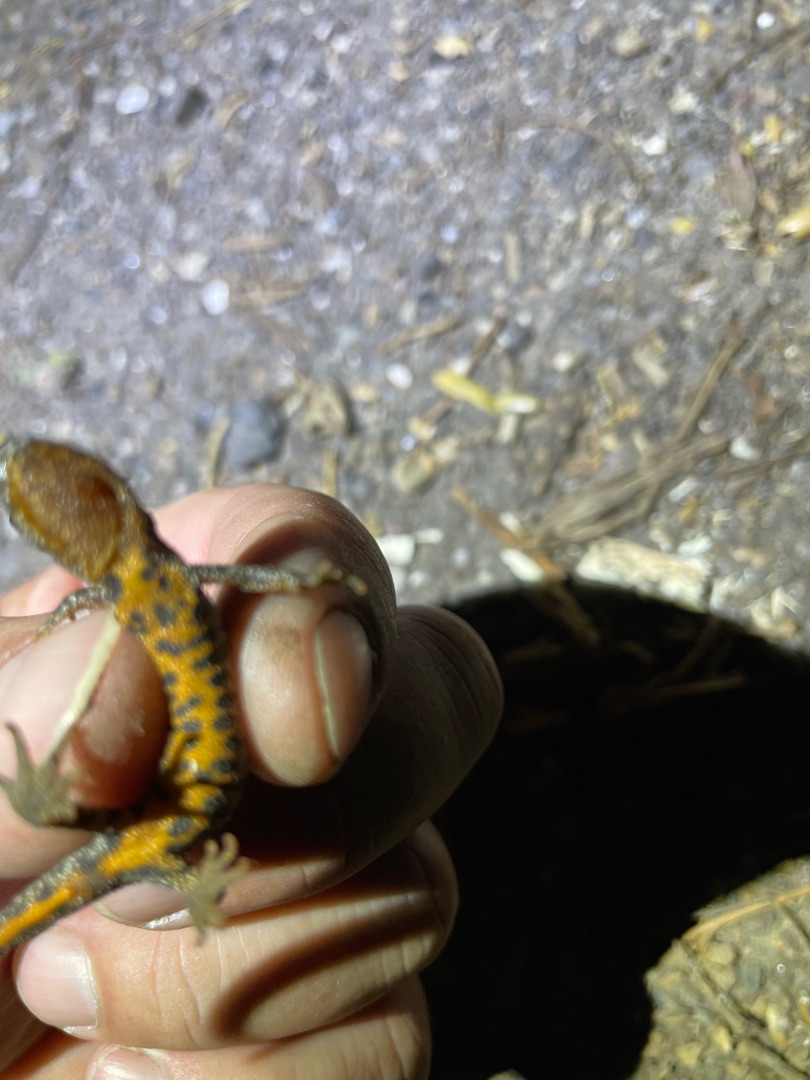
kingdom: Animalia
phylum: Chordata
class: Amphibia
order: Caudata
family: Salamandridae
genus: Triturus
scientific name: Triturus cristatus
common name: Stor vandsalamander
